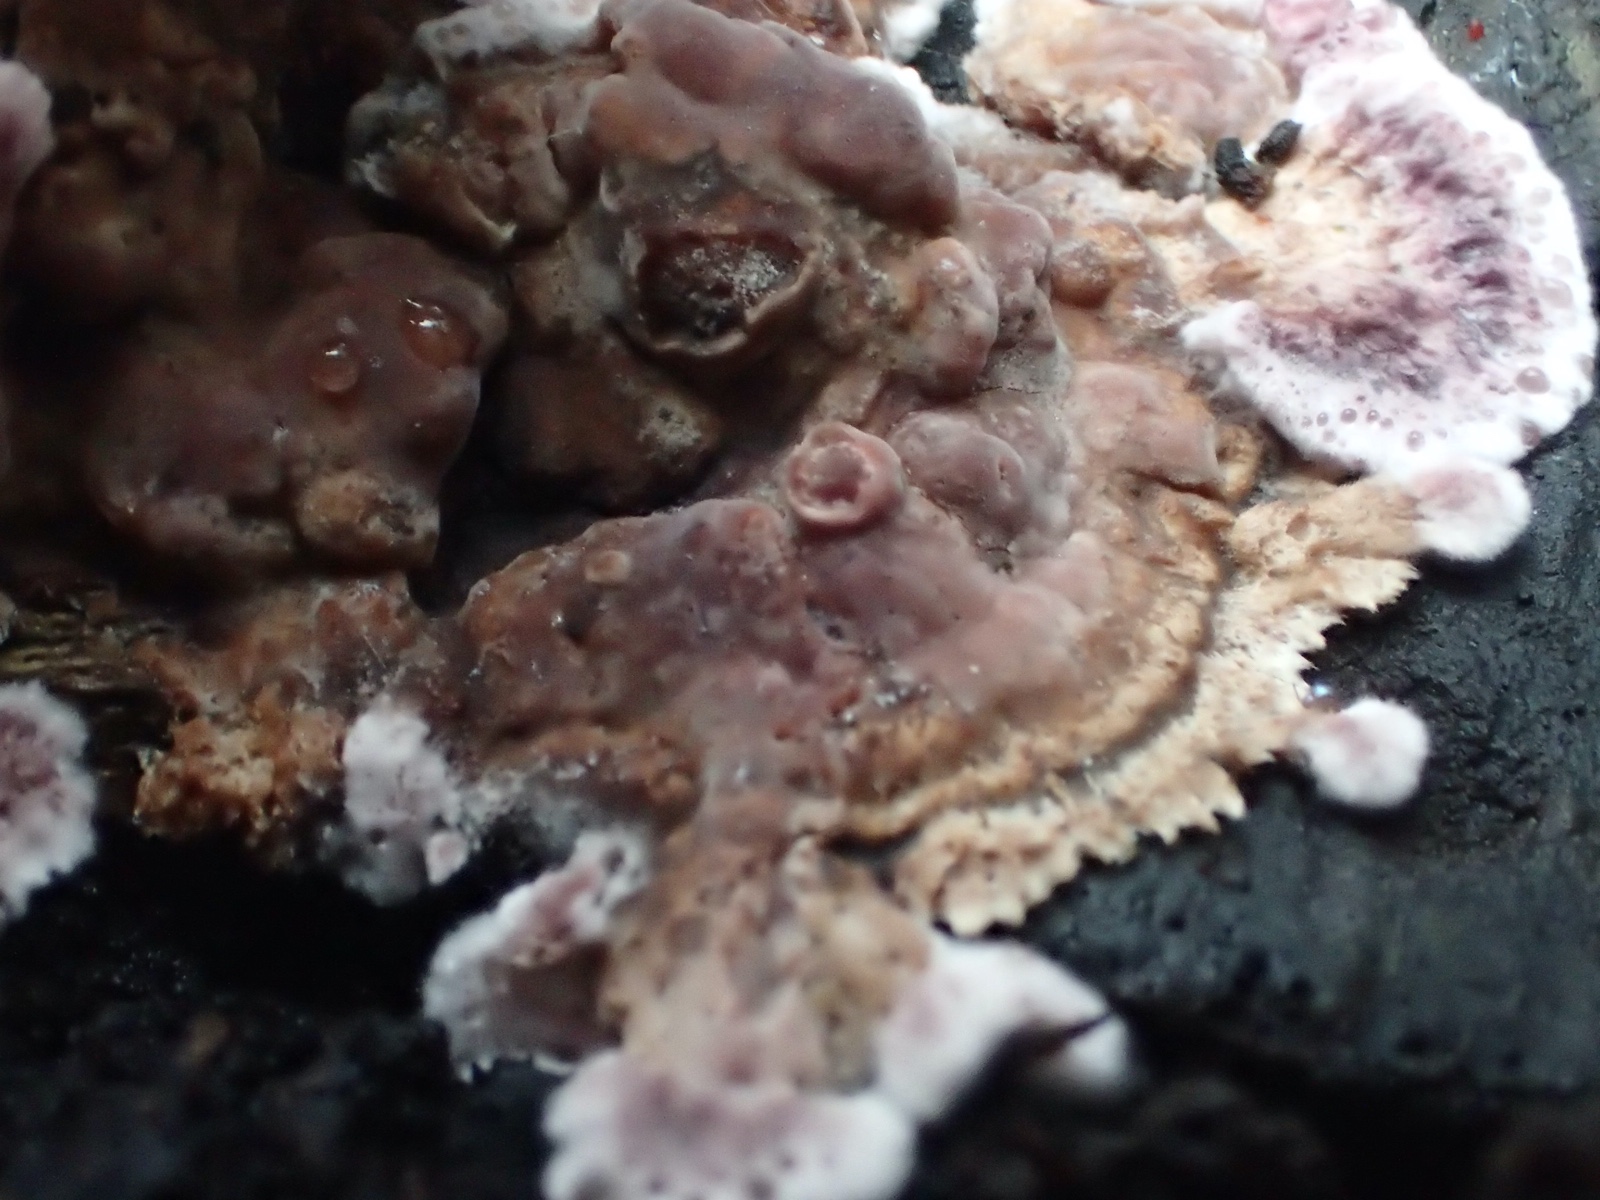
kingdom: Fungi
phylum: Basidiomycota
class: Agaricomycetes
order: Agaricales
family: Cyphellaceae
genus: Chondrostereum
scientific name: Chondrostereum purpureum
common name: purpurlædersvamp
